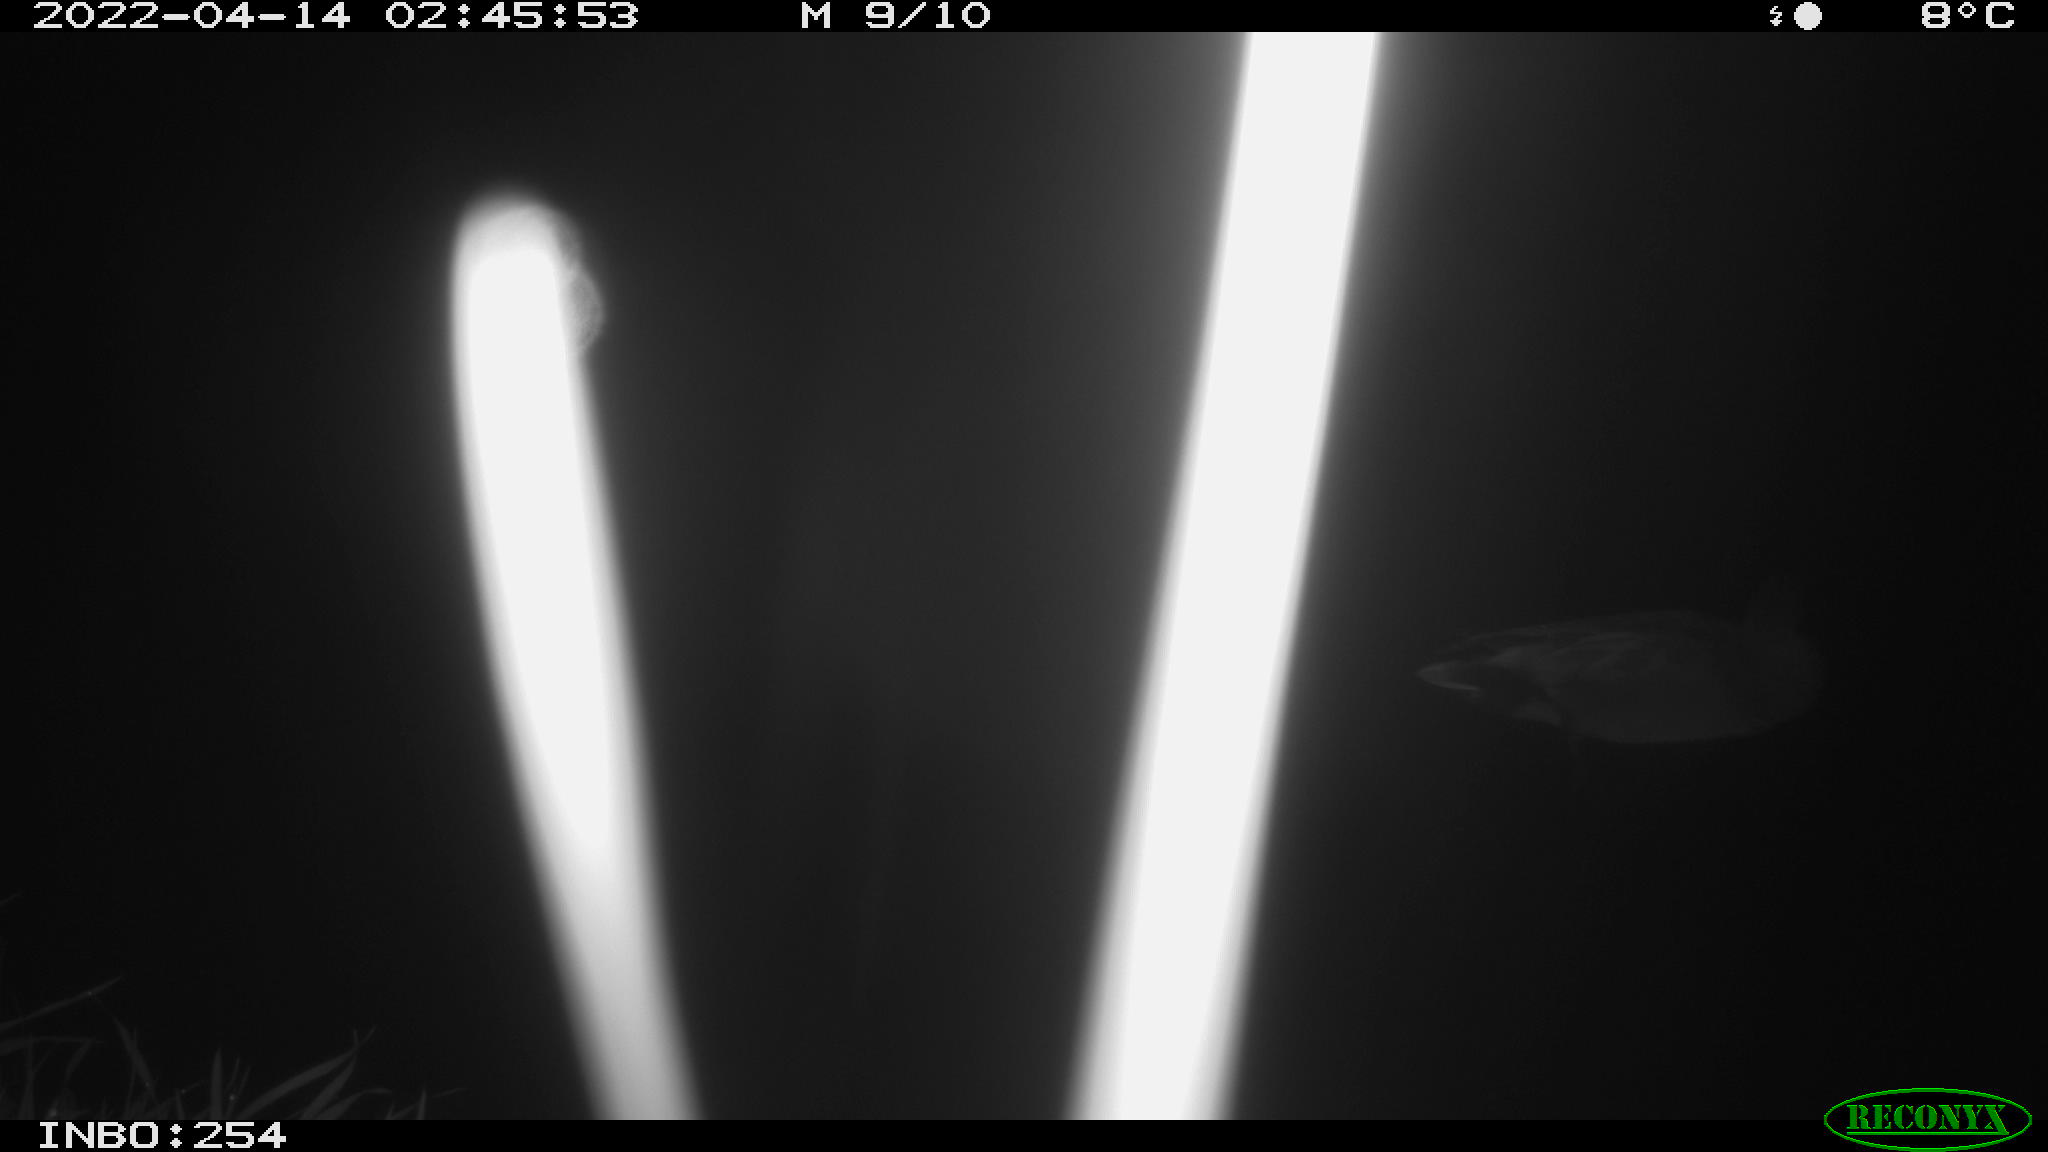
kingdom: Animalia
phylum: Chordata
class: Aves
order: Anseriformes
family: Anatidae
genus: Anas
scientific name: Anas platyrhynchos
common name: Mallard
